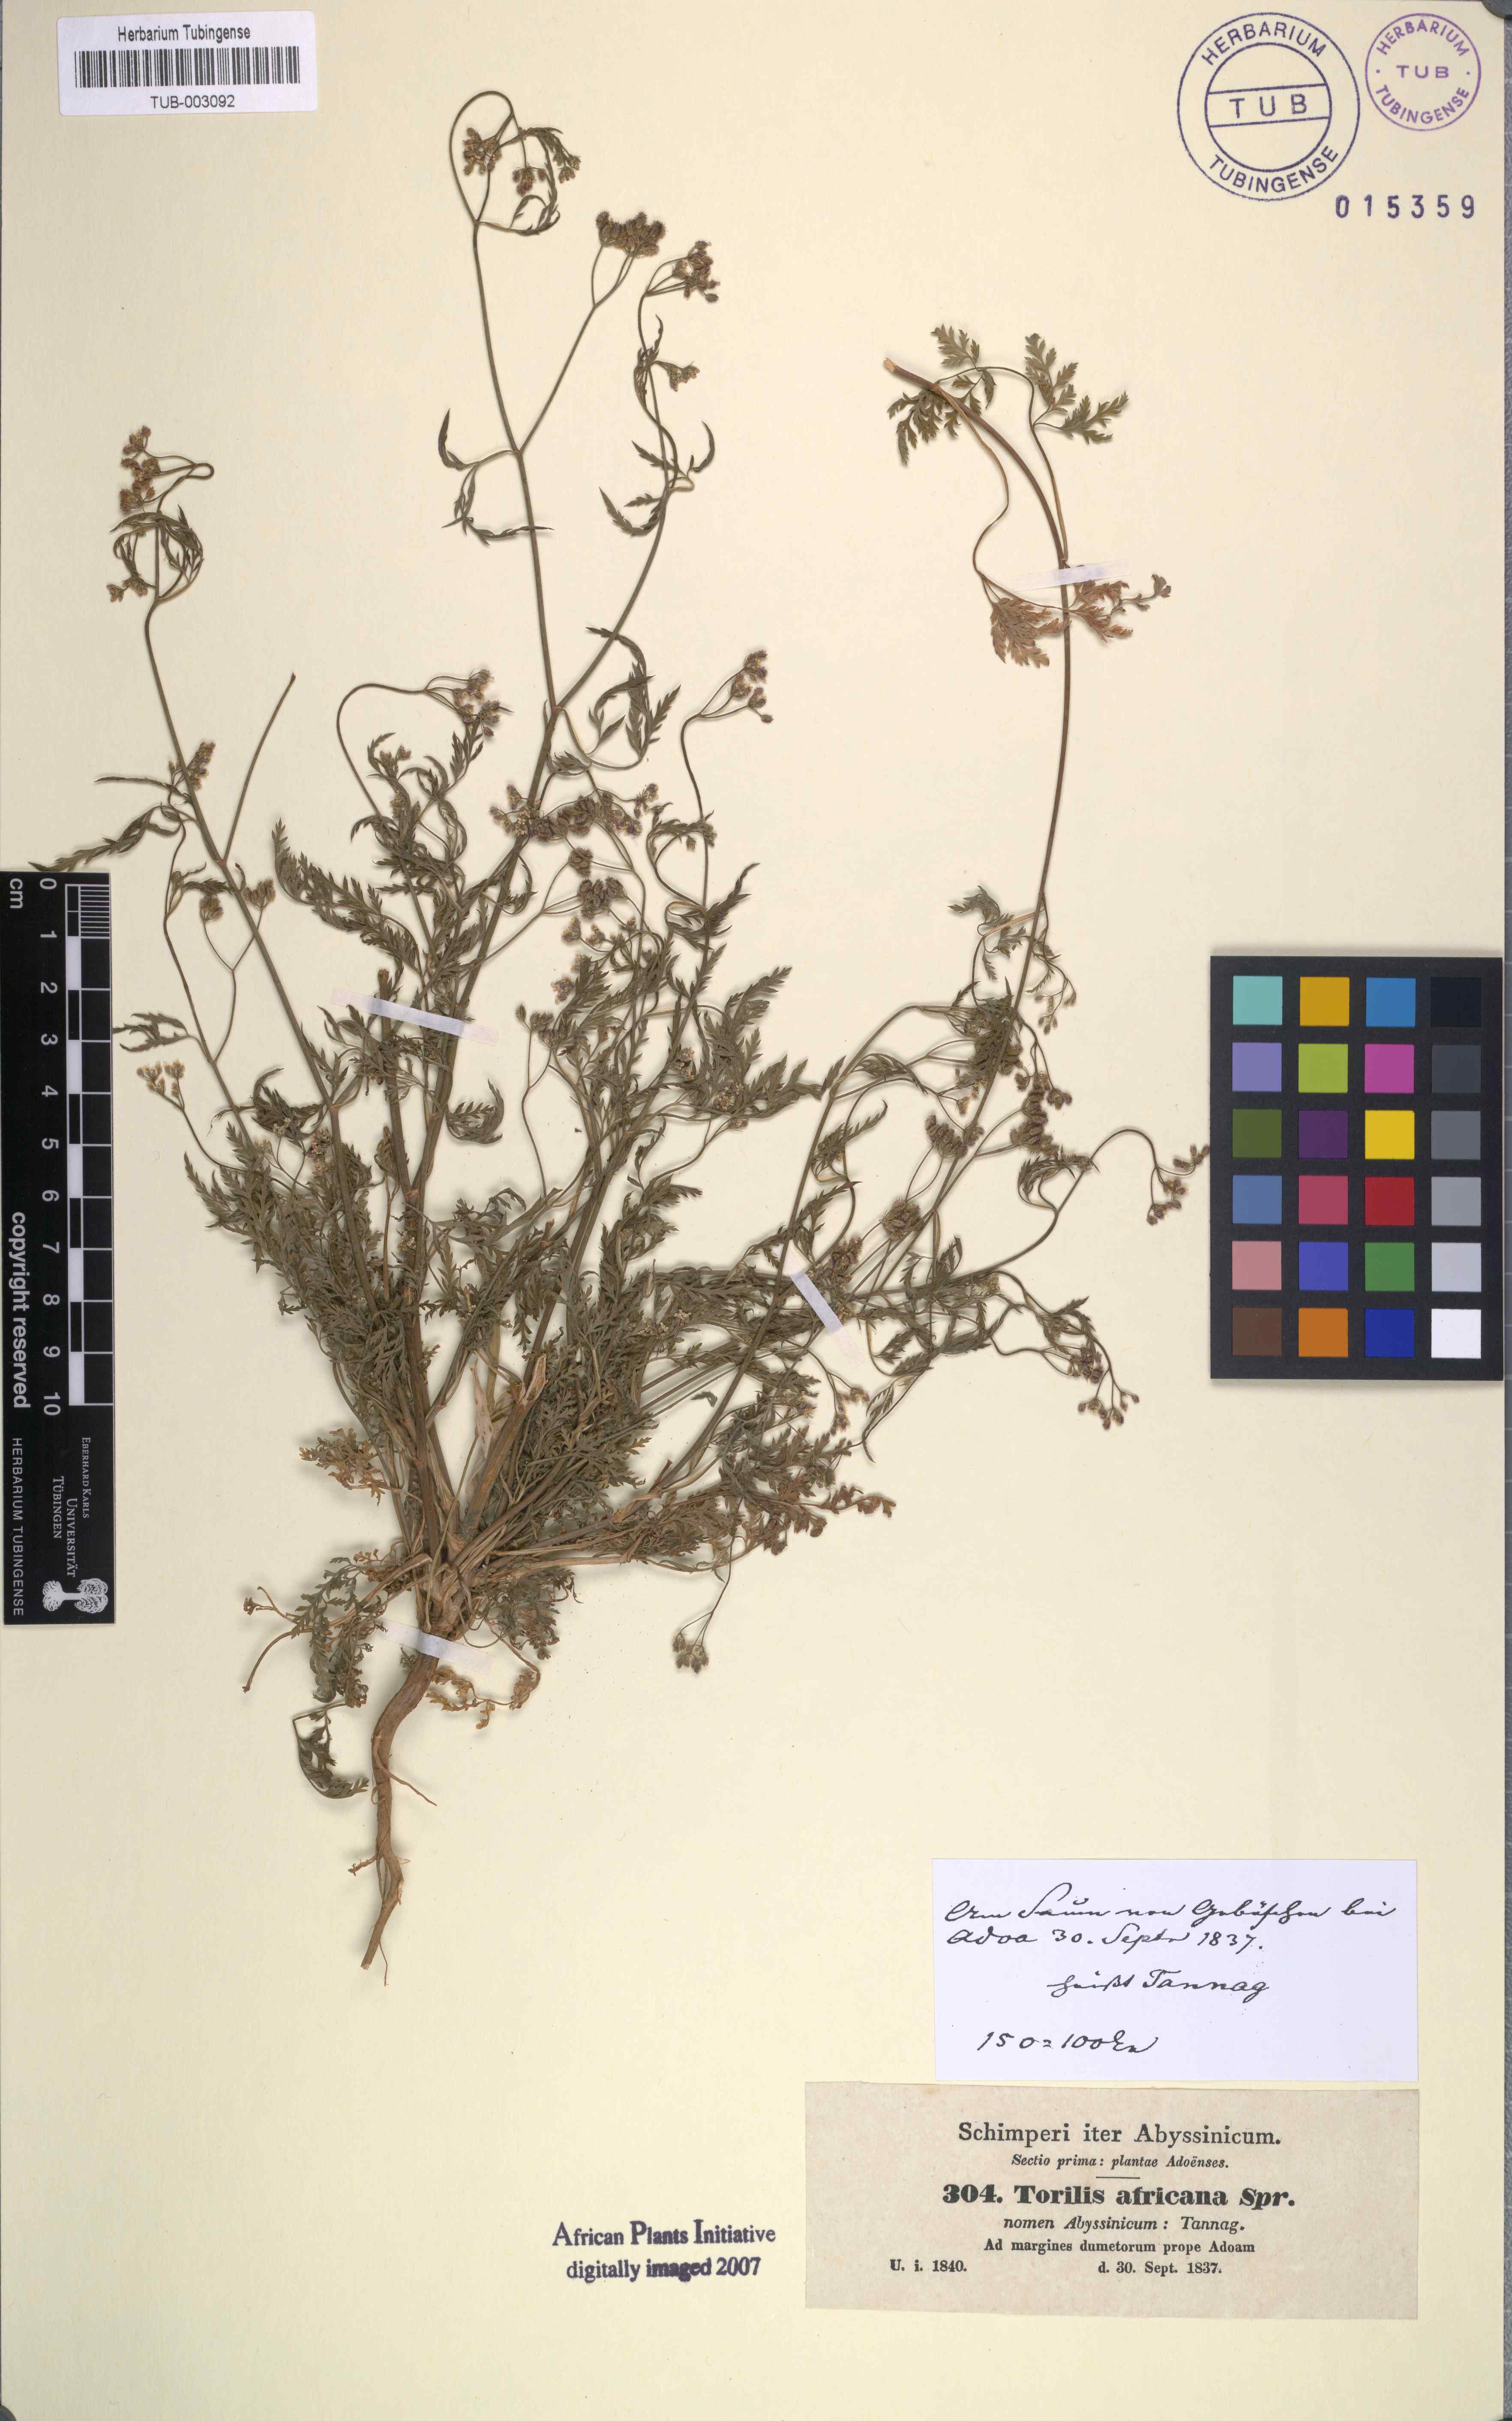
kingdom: Plantae
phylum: Tracheophyta
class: Magnoliopsida
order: Apiales
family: Apiaceae
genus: Torilis
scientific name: Torilis africana
